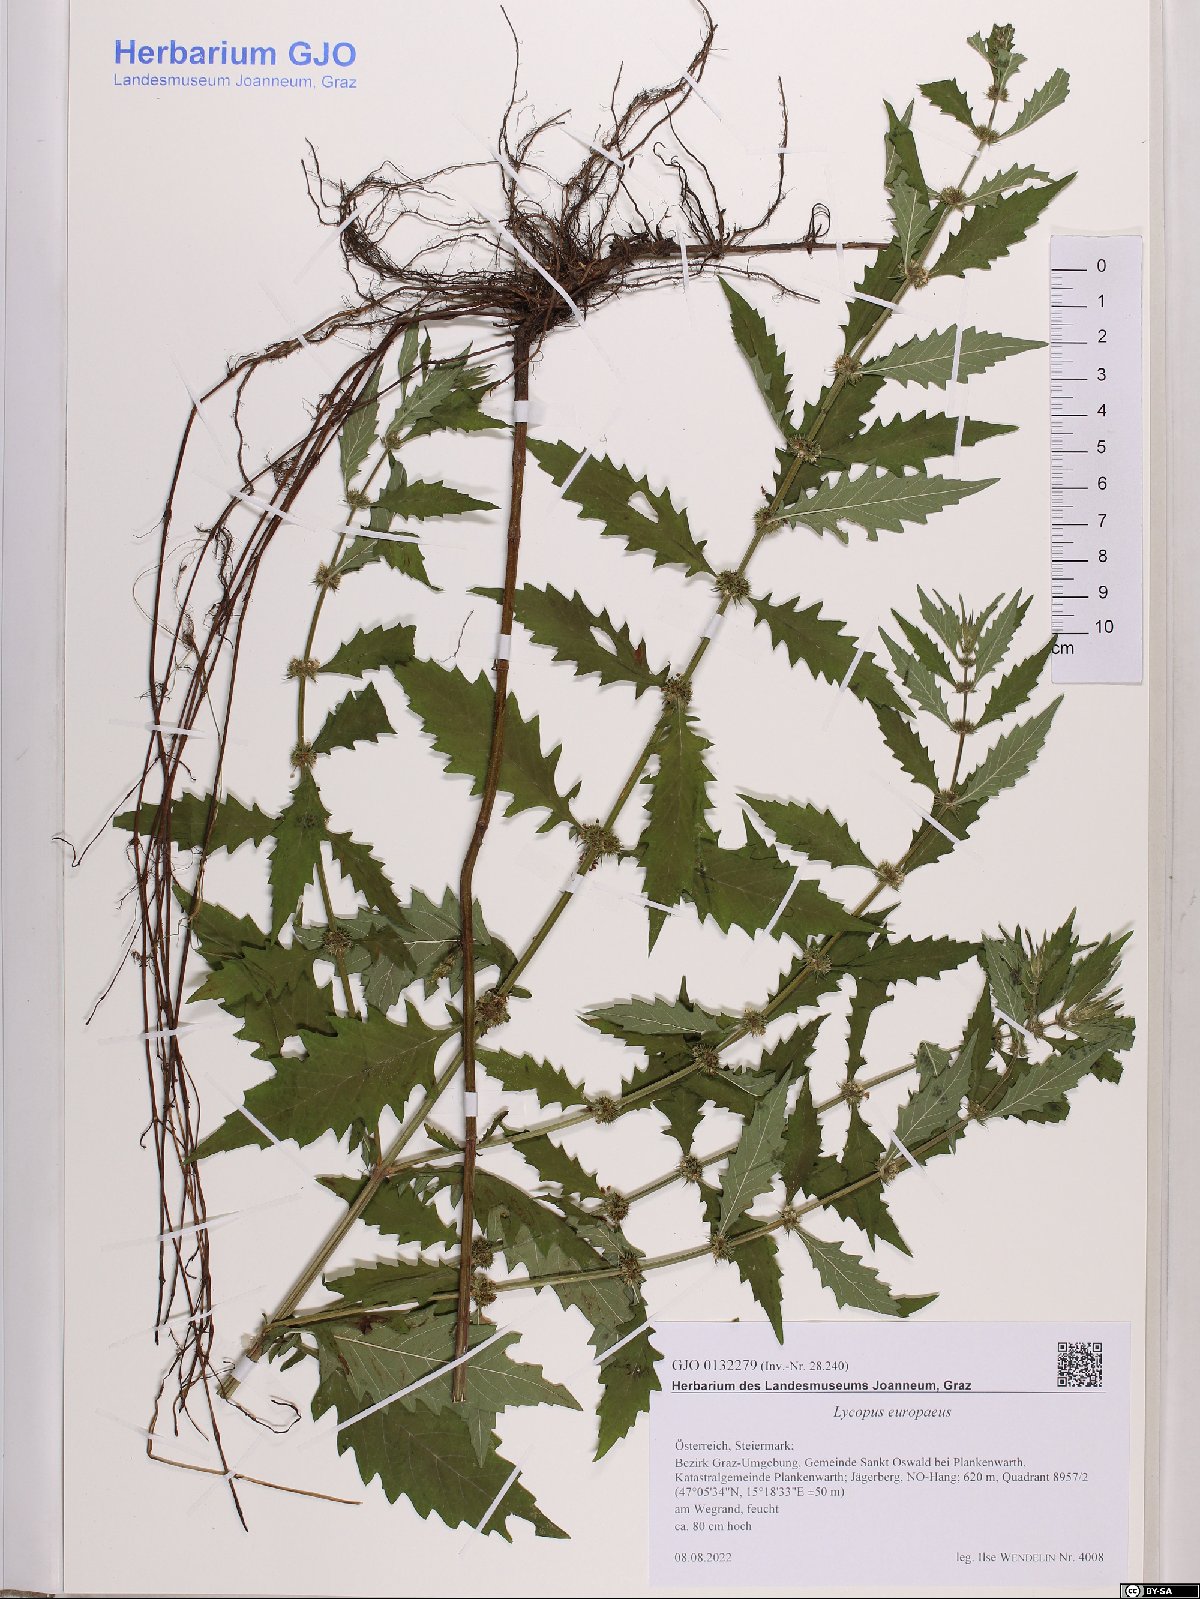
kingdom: Plantae
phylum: Tracheophyta
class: Magnoliopsida
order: Lamiales
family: Lamiaceae
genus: Lycopus
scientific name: Lycopus europaeus
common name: European bugleweed
